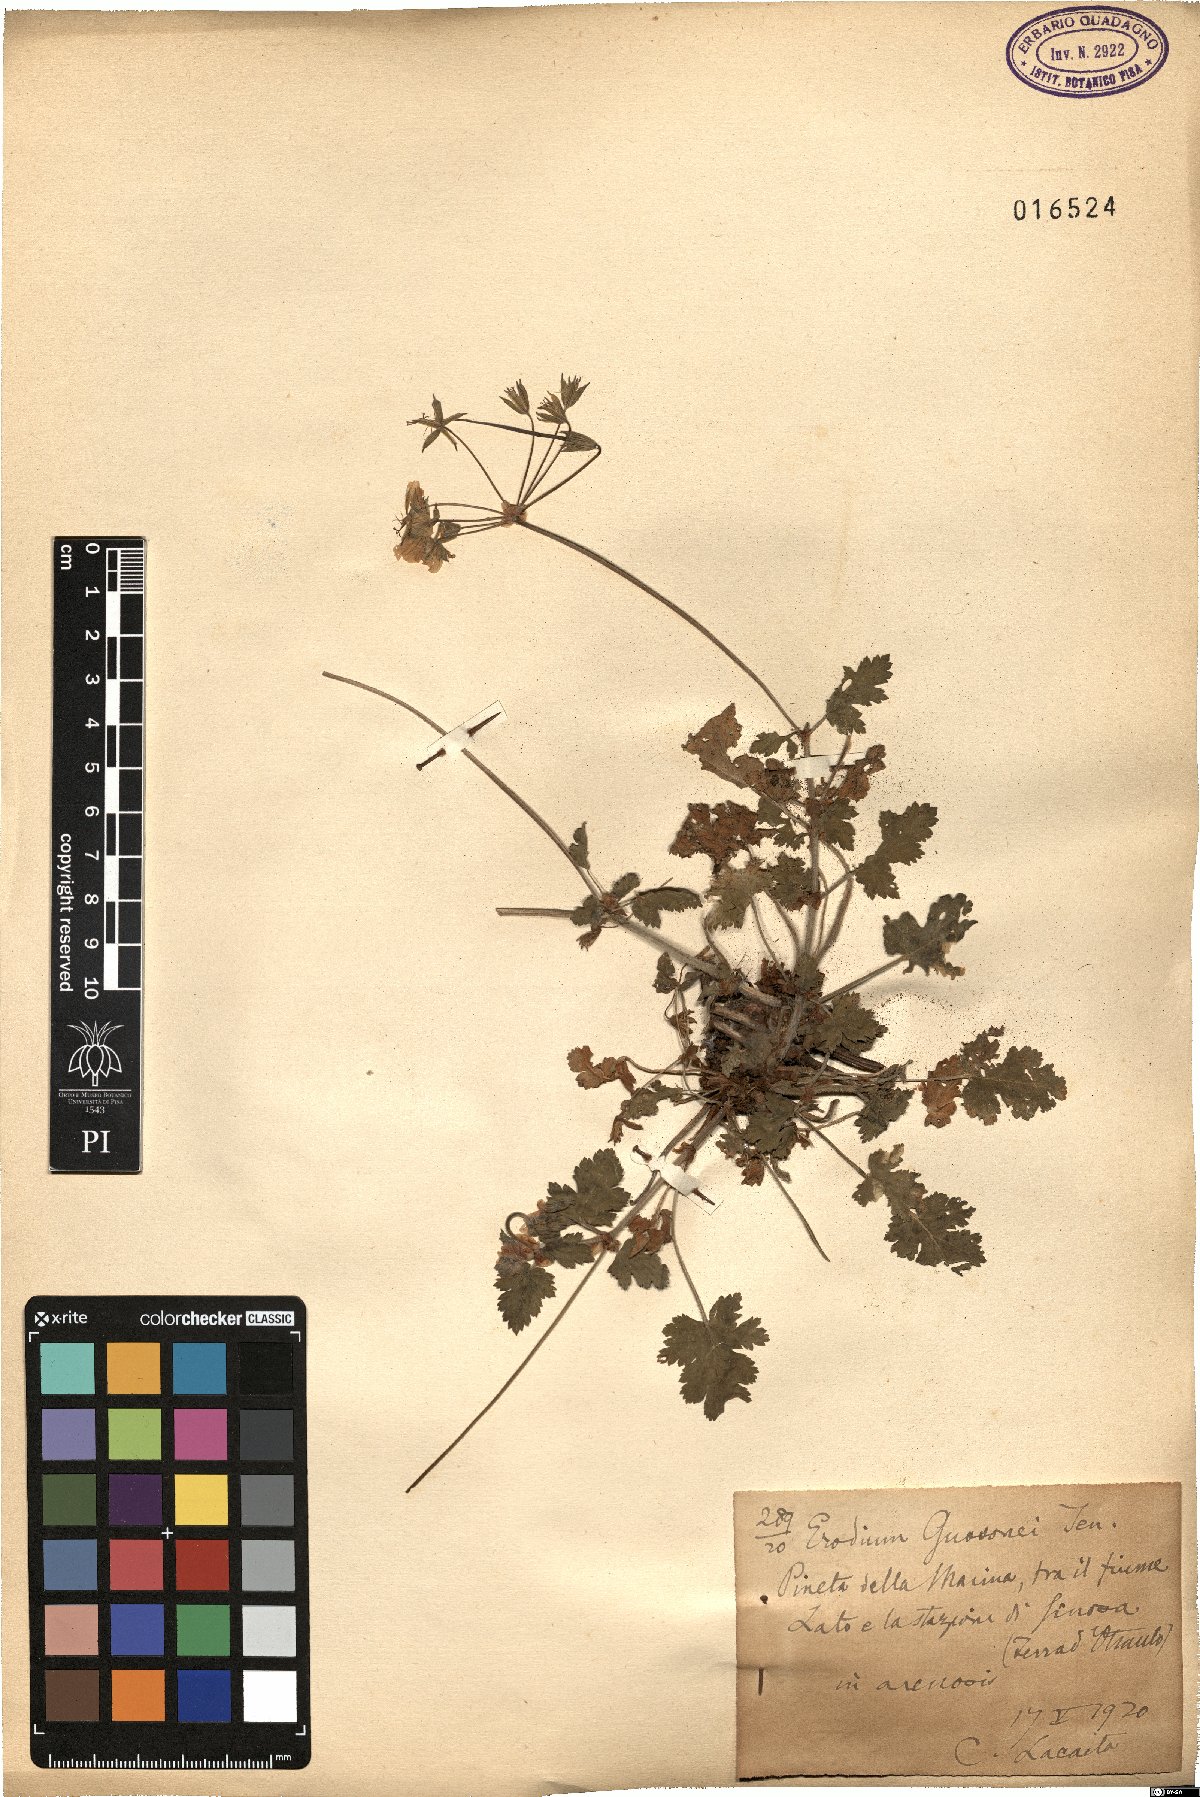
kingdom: Plantae
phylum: Tracheophyta
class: Magnoliopsida
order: Geraniales
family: Geraniaceae
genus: Erodium
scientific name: Erodium nervulosum
